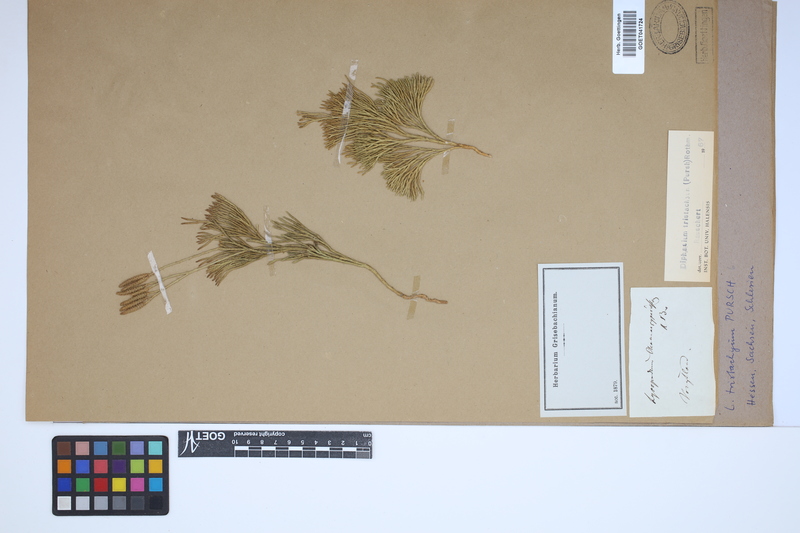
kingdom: Plantae
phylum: Tracheophyta
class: Lycopodiopsida
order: Lycopodiales
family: Lycopodiaceae
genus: Diphasiastrum
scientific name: Diphasiastrum tristachyum
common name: Blue ground-cedar
